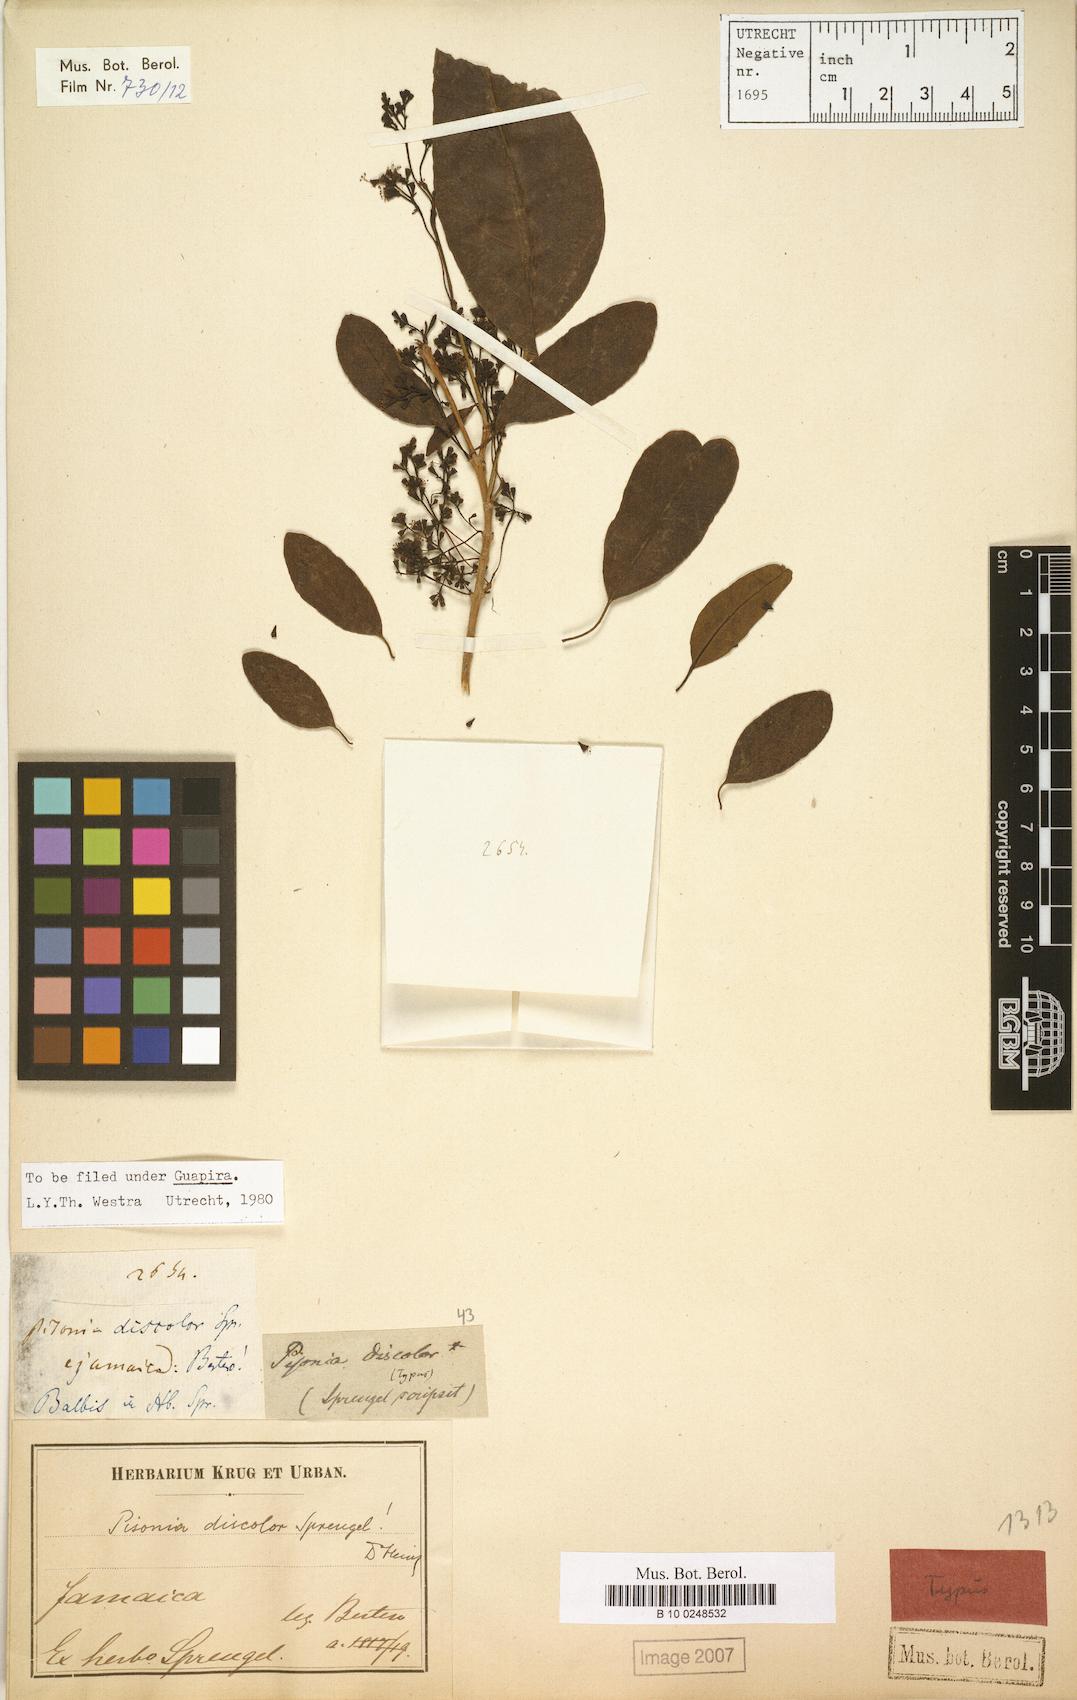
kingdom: Plantae
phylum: Tracheophyta
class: Magnoliopsida
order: Caryophyllales
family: Nyctaginaceae
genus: Guapira
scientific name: Guapira discolor
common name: Beeftree
